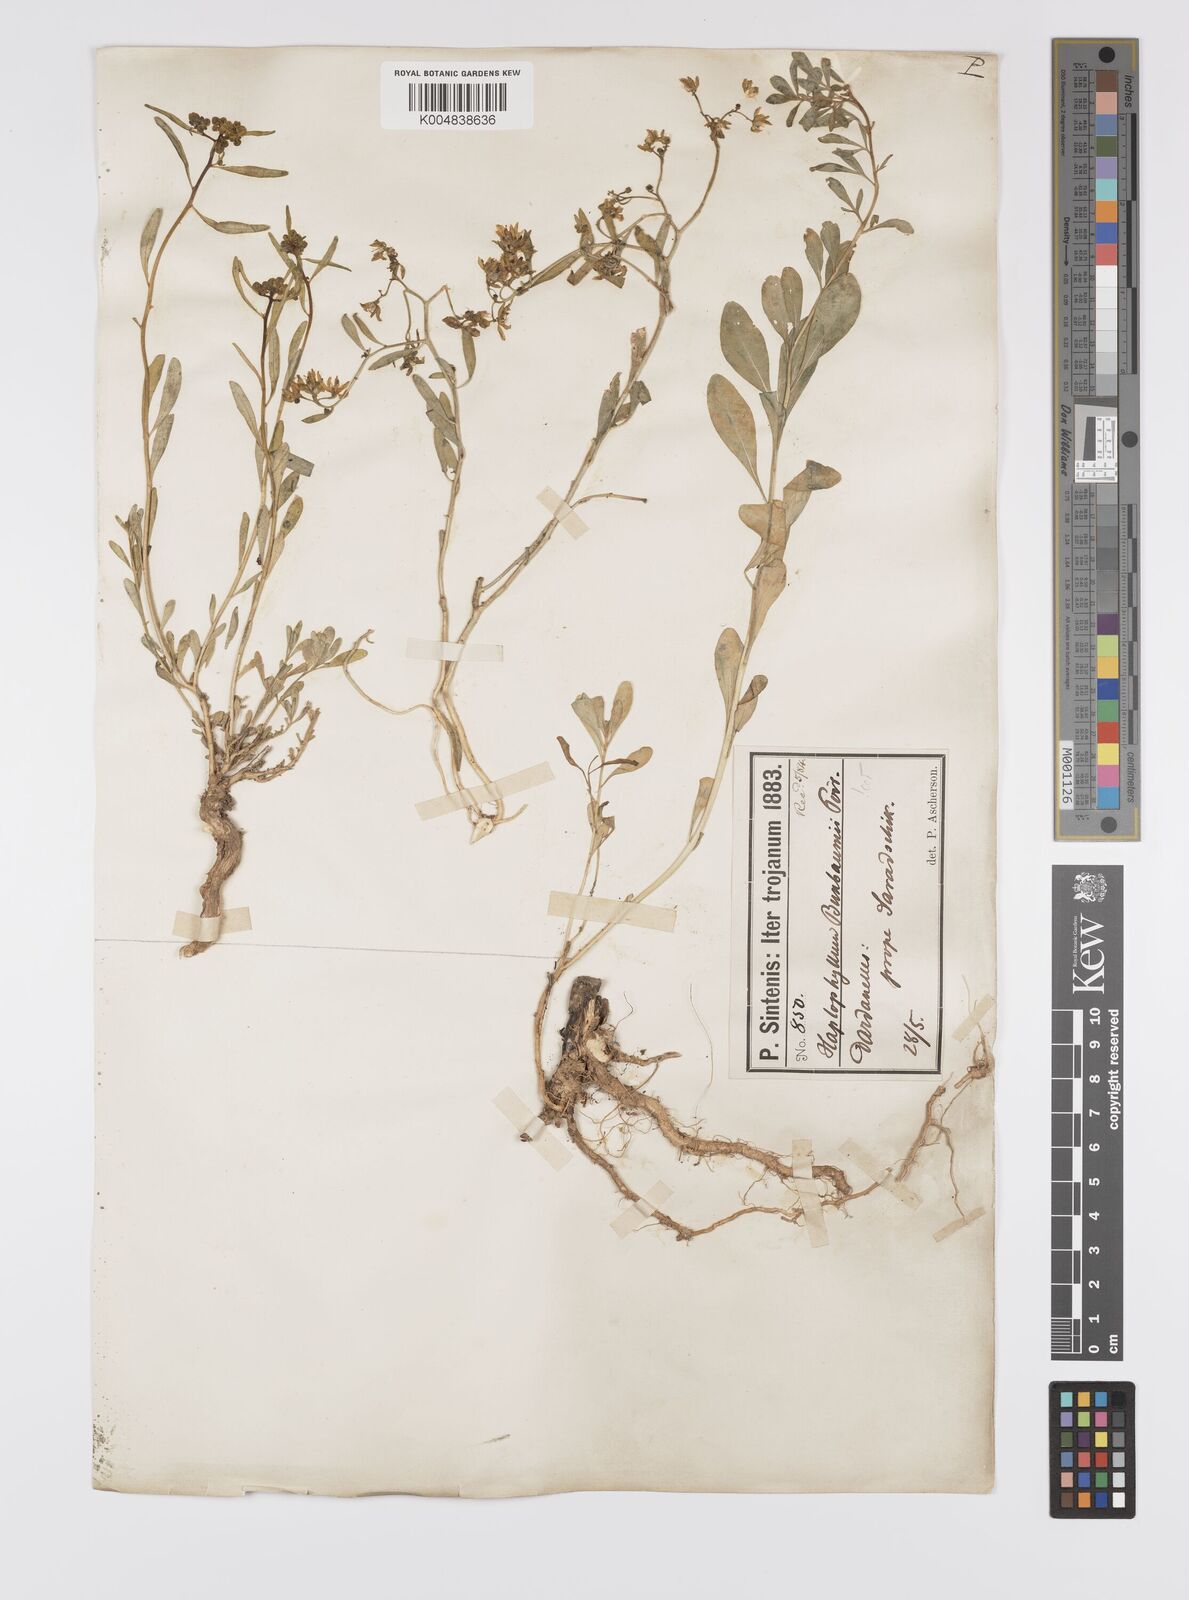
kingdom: Plantae
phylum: Tracheophyta
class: Magnoliopsida
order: Sapindales
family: Rutaceae
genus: Haplophyllum
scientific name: Haplophyllum
